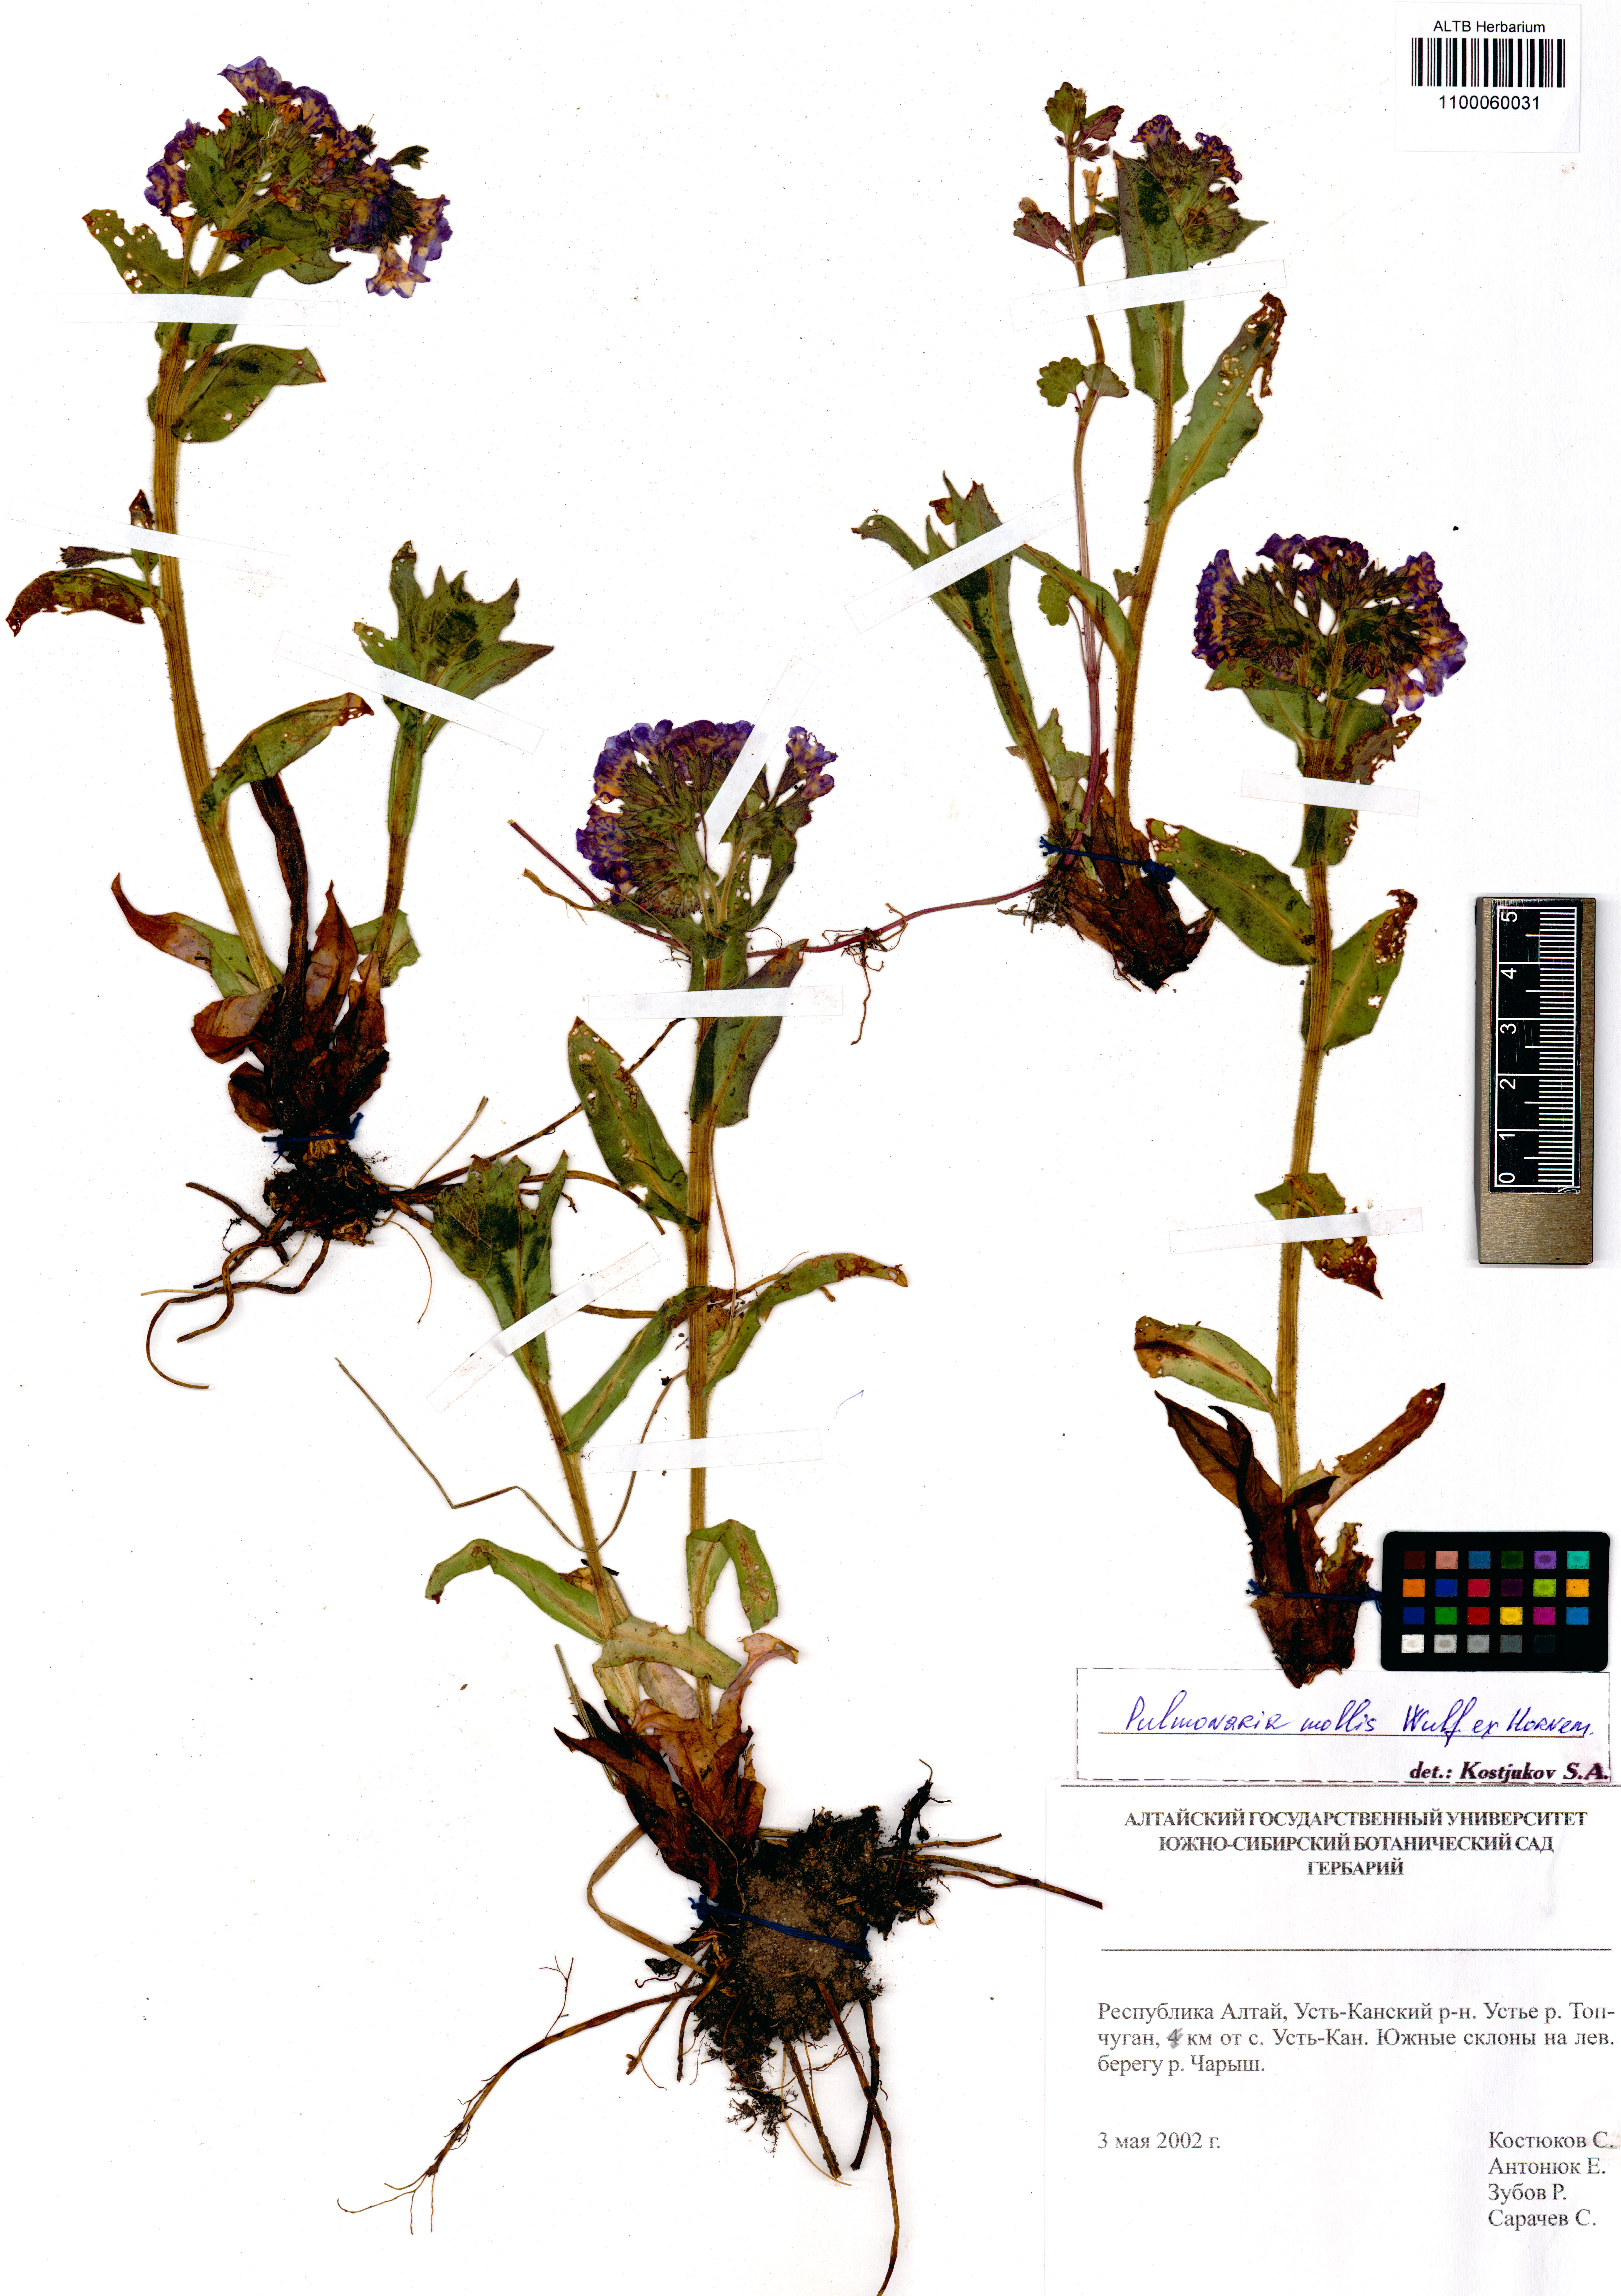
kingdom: Plantae
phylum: Tracheophyta
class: Magnoliopsida
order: Boraginales
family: Boraginaceae
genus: Pulmonaria
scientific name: Pulmonaria mollis
